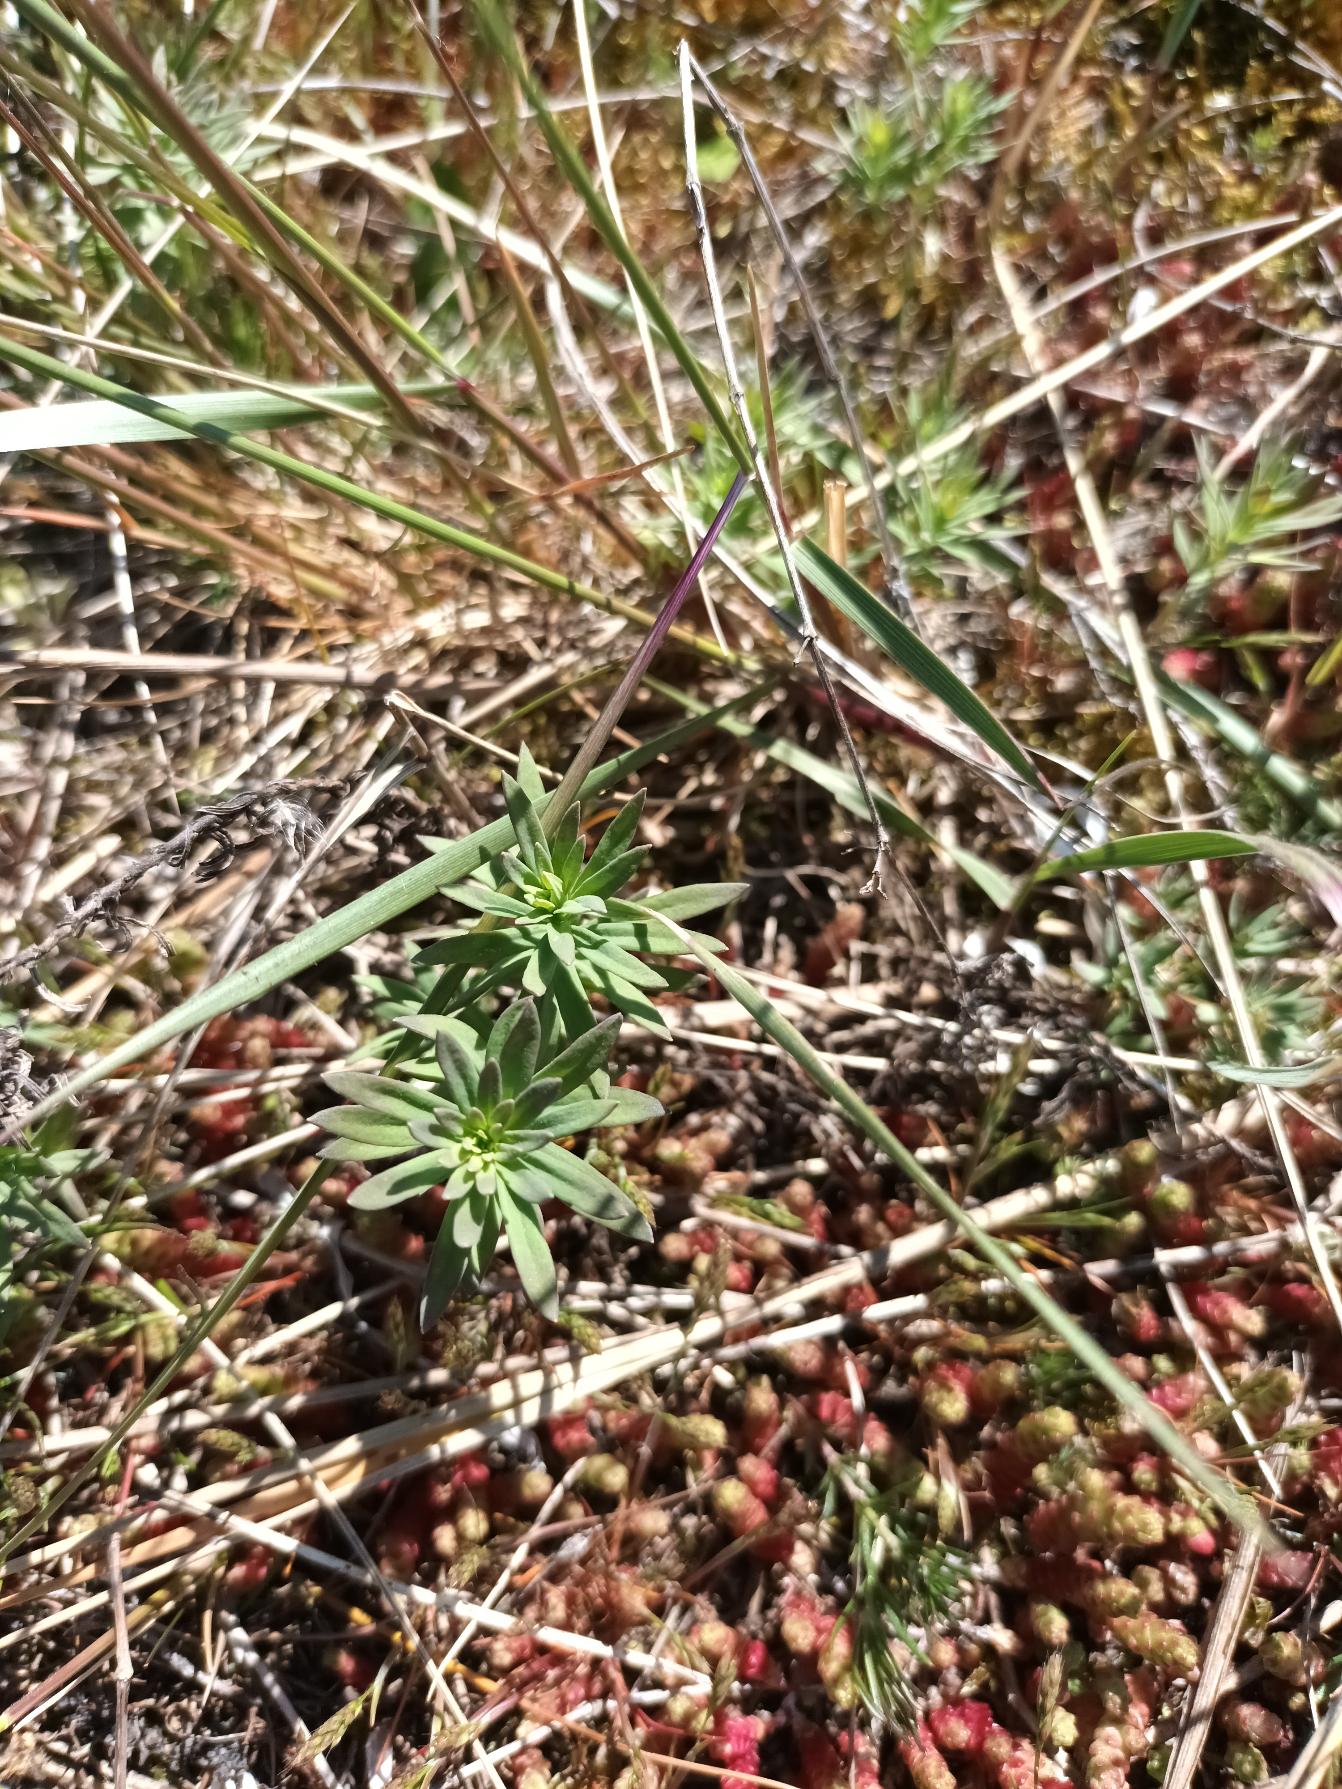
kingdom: Plantae
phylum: Tracheophyta
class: Magnoliopsida
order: Lamiales
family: Plantaginaceae
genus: Linaria
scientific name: Linaria vulgaris
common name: Almindelig torskemund
